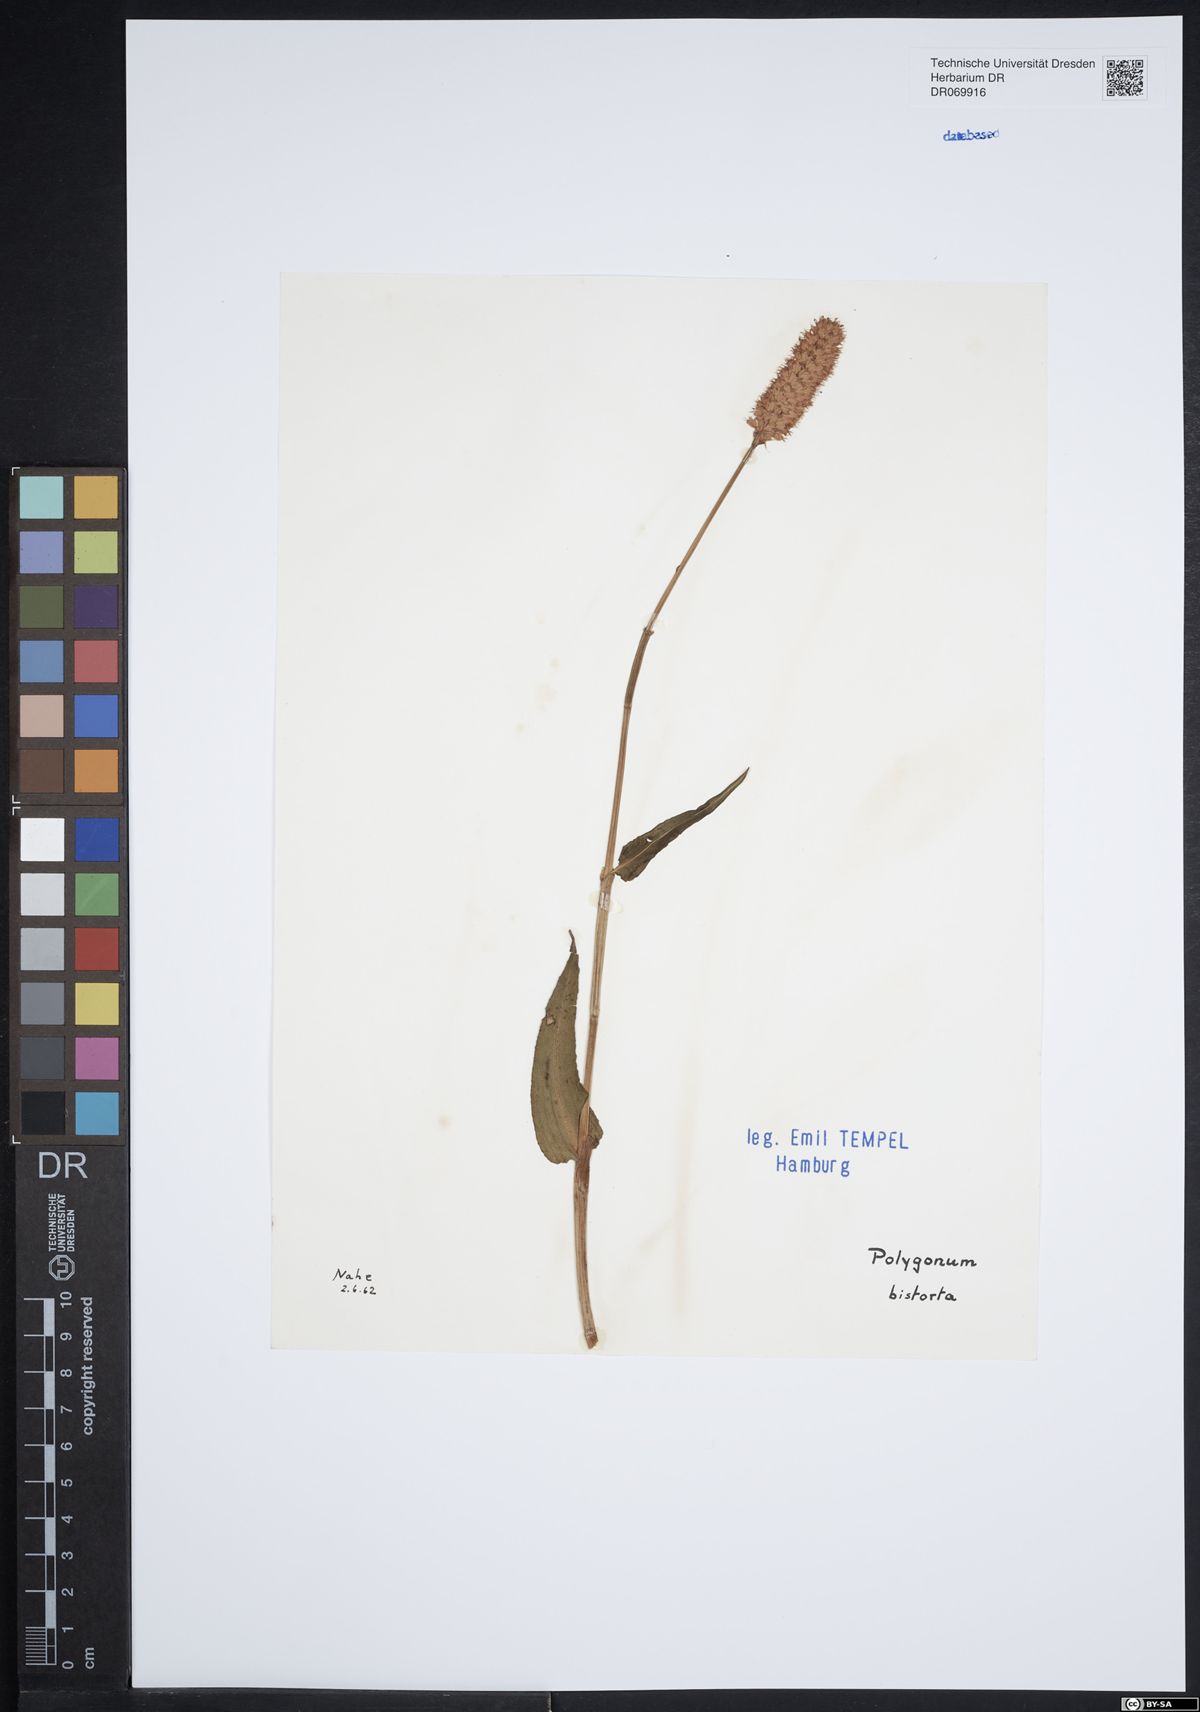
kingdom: Plantae
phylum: Tracheophyta
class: Magnoliopsida
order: Caryophyllales
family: Polygonaceae
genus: Polygonum
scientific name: Polygonum bistorta
